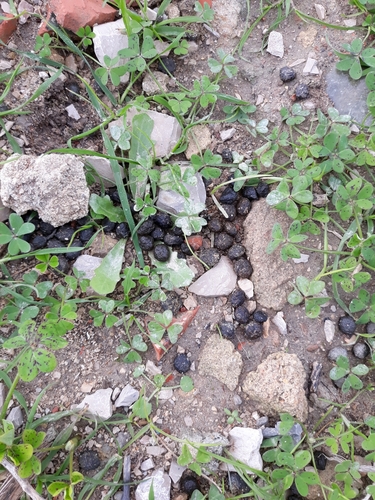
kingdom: Animalia
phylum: Chordata
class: Mammalia
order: Lagomorpha
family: Leporidae
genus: Oryctolagus
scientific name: Oryctolagus cuniculus
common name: European rabbit
